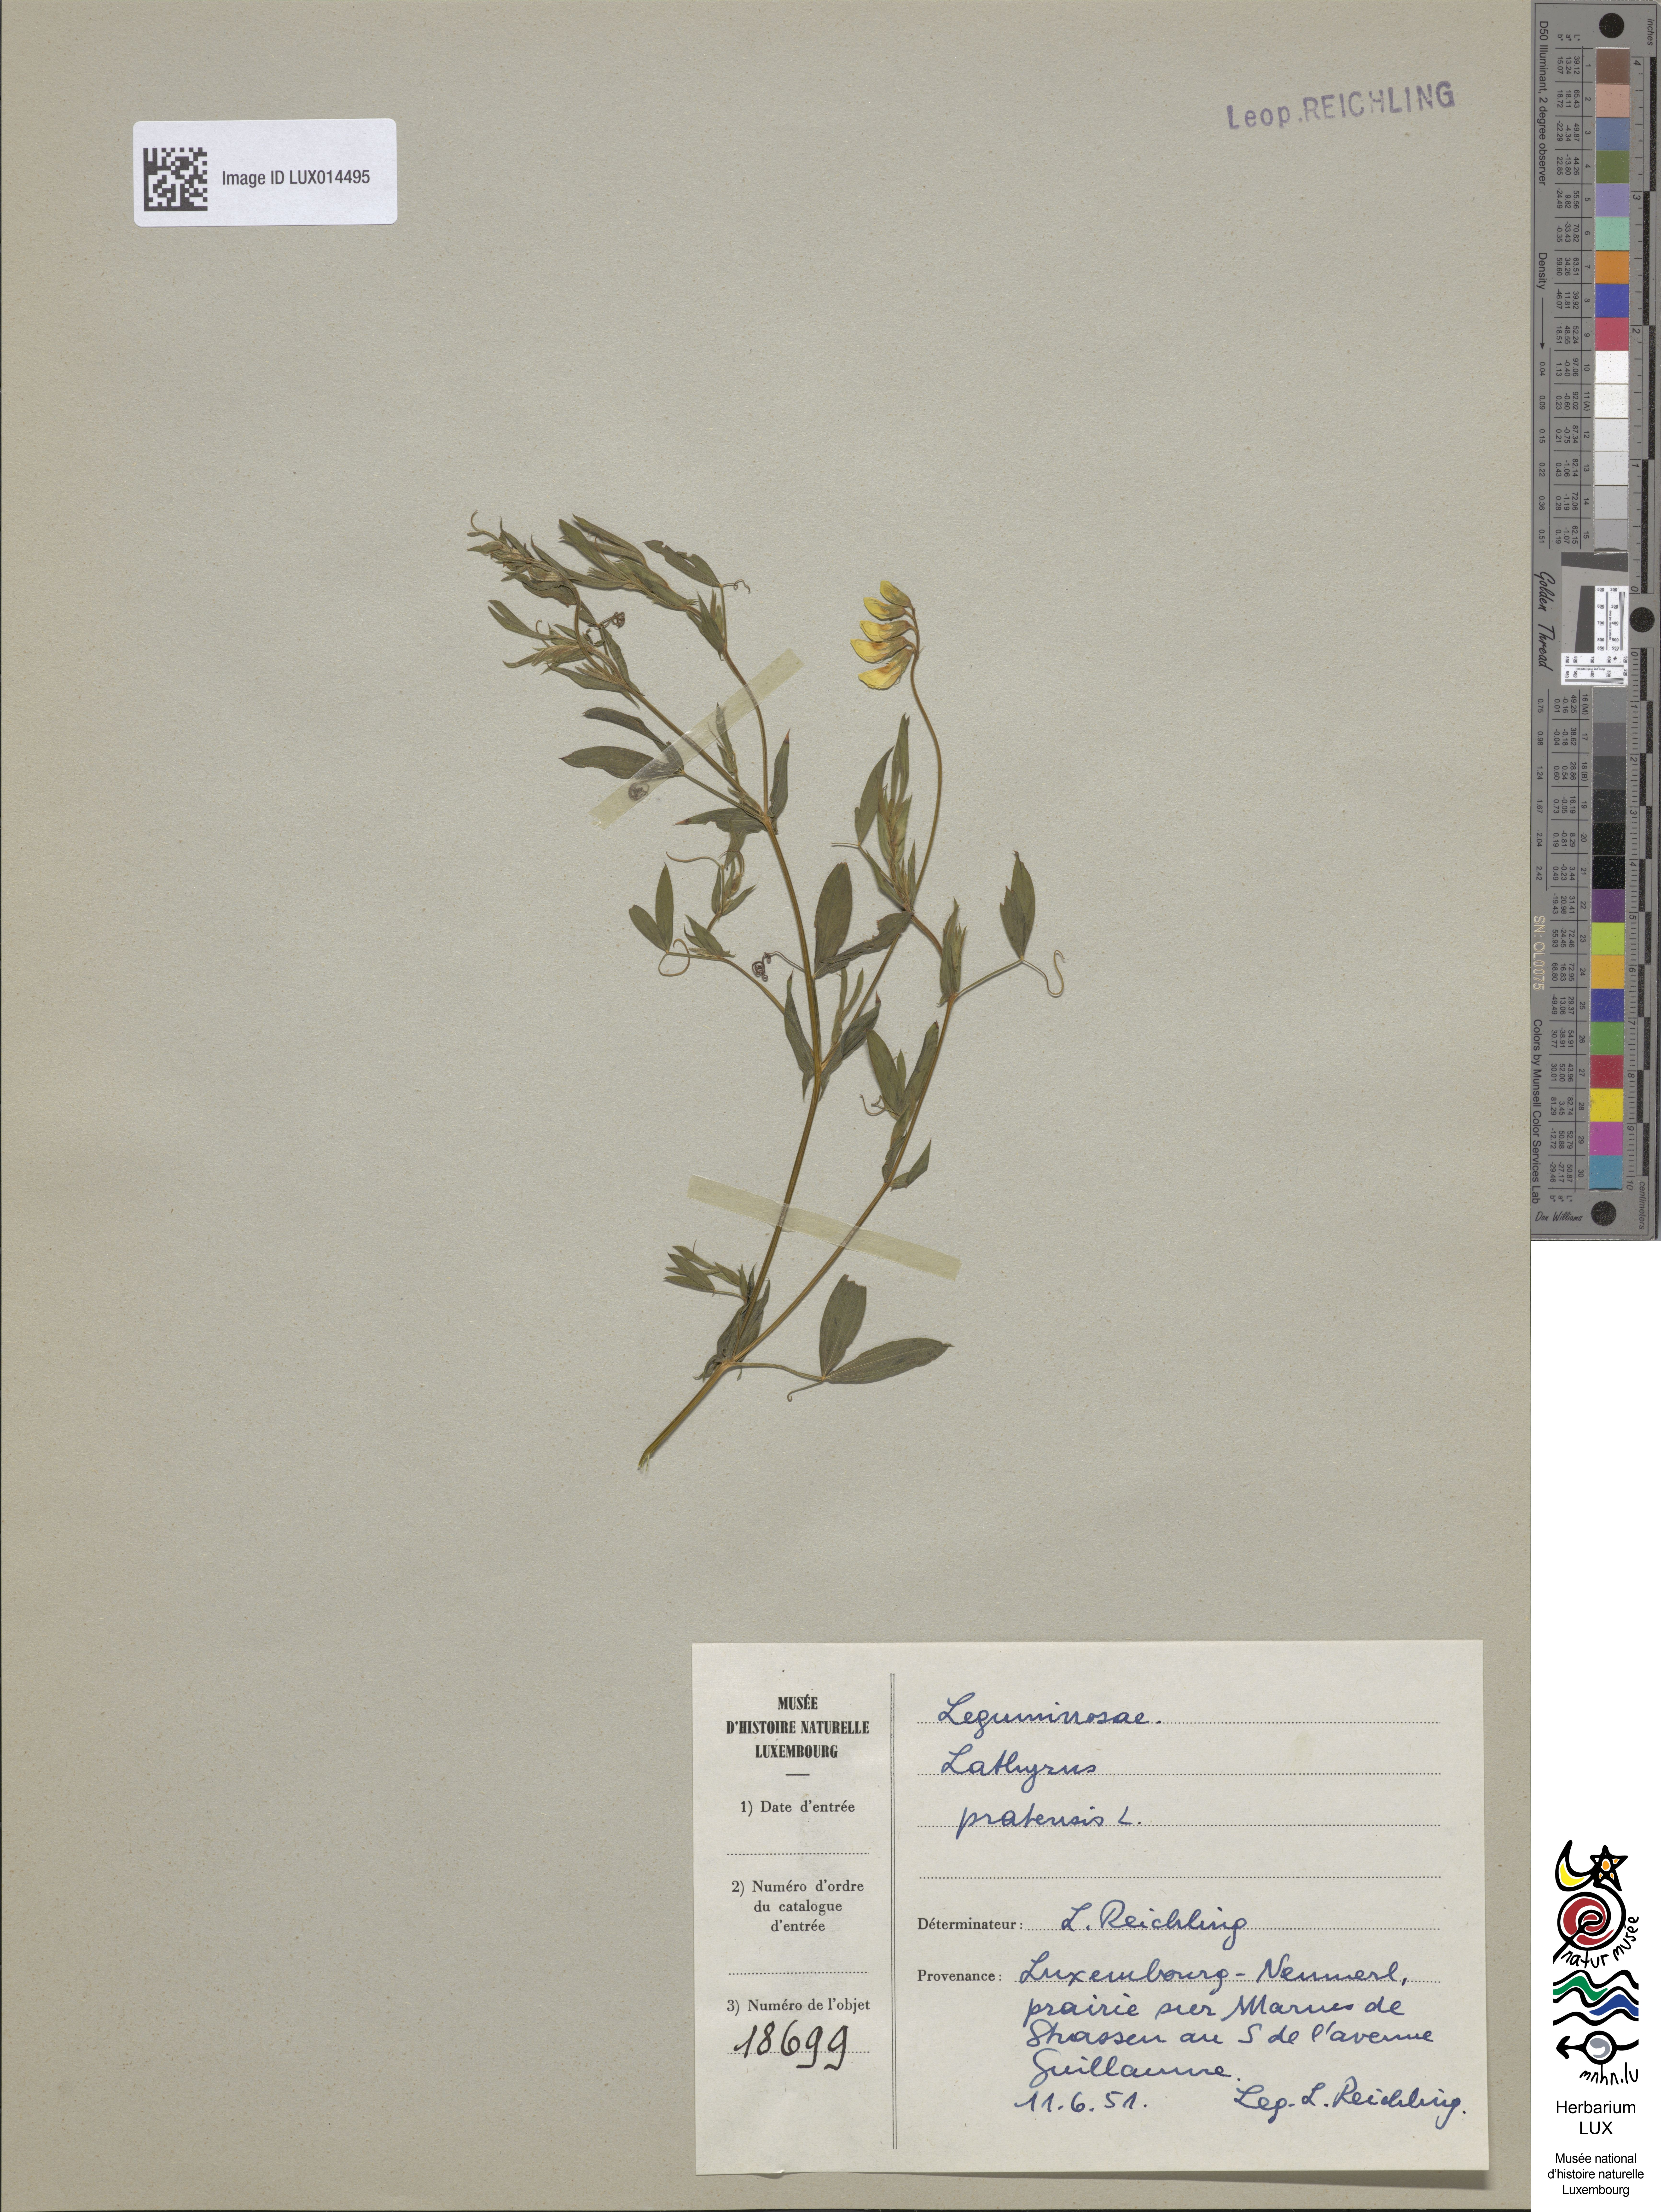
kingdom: Plantae
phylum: Tracheophyta
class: Magnoliopsida
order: Fabales
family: Fabaceae
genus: Lathyrus
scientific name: Lathyrus pratensis
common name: Meadow vetchling
